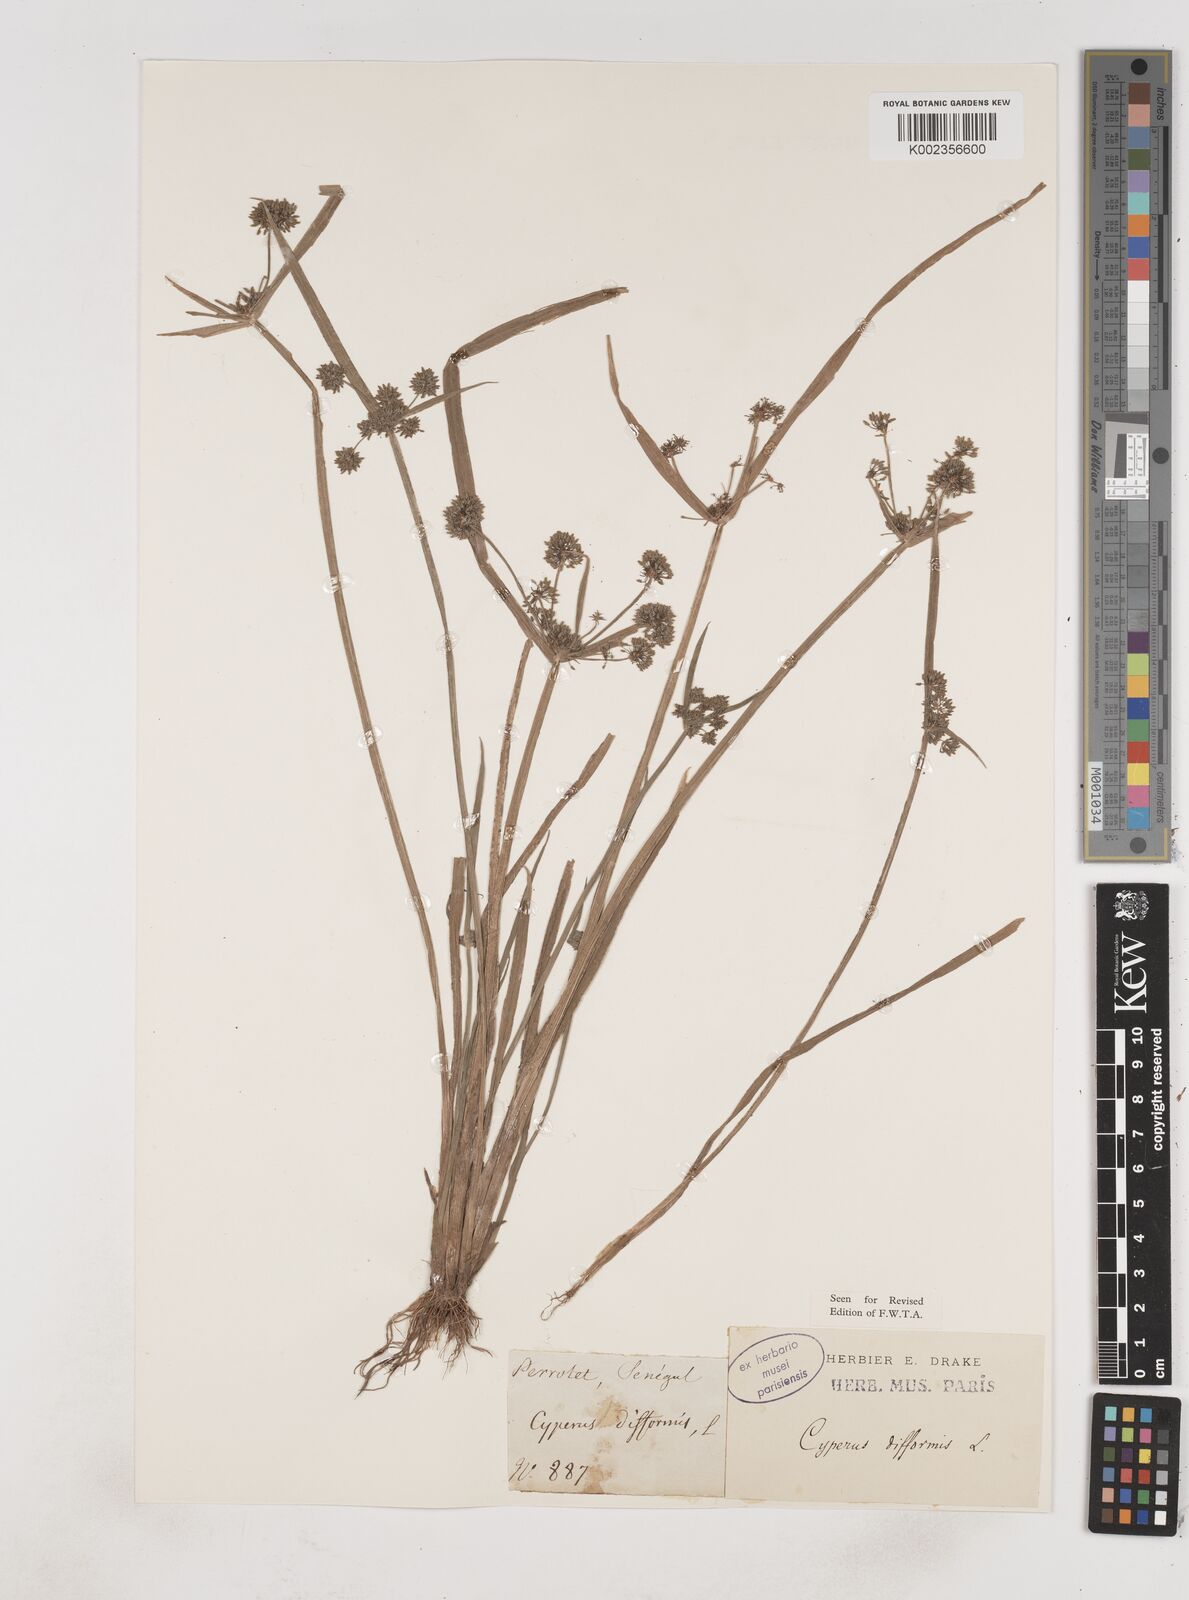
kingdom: Plantae
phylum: Tracheophyta
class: Liliopsida
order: Poales
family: Cyperaceae
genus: Cyperus
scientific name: Cyperus difformis
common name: Variable flatsedge
